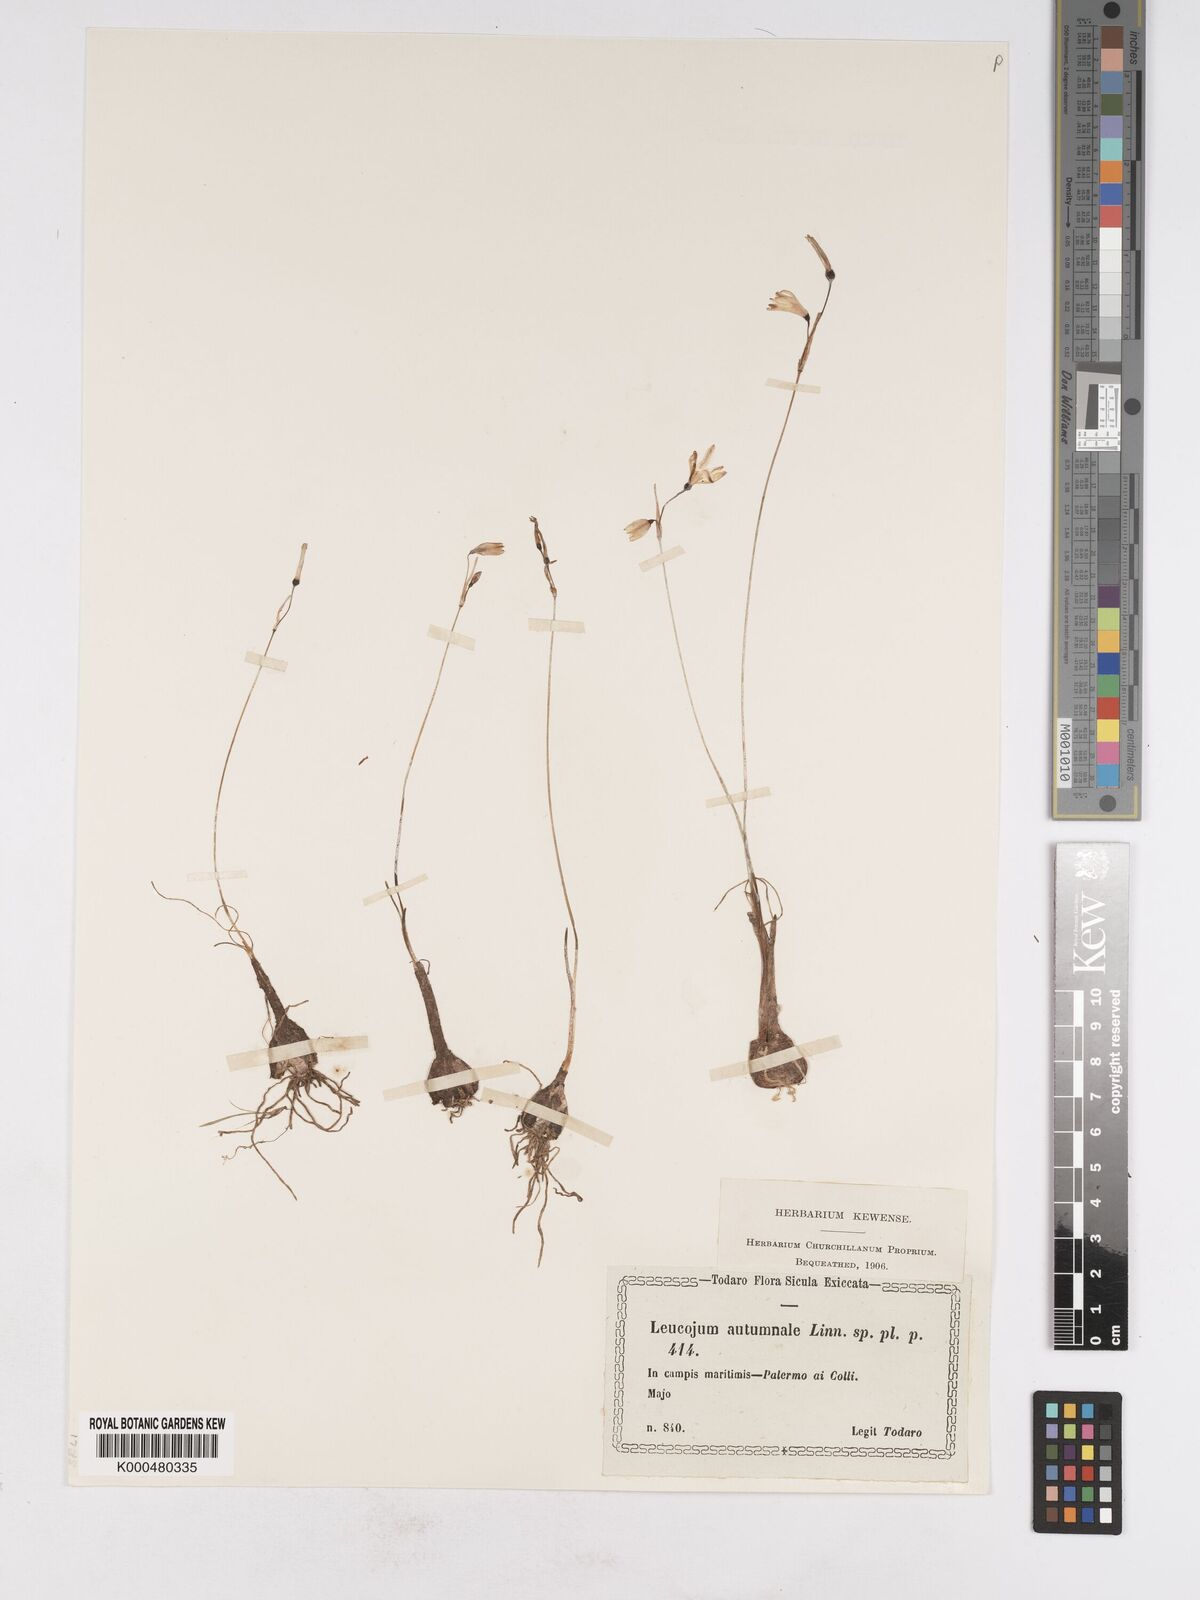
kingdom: Plantae
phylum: Tracheophyta
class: Liliopsida
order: Asparagales
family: Amaryllidaceae
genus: Acis
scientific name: Acis autumnalis
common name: Autumn snowflake
